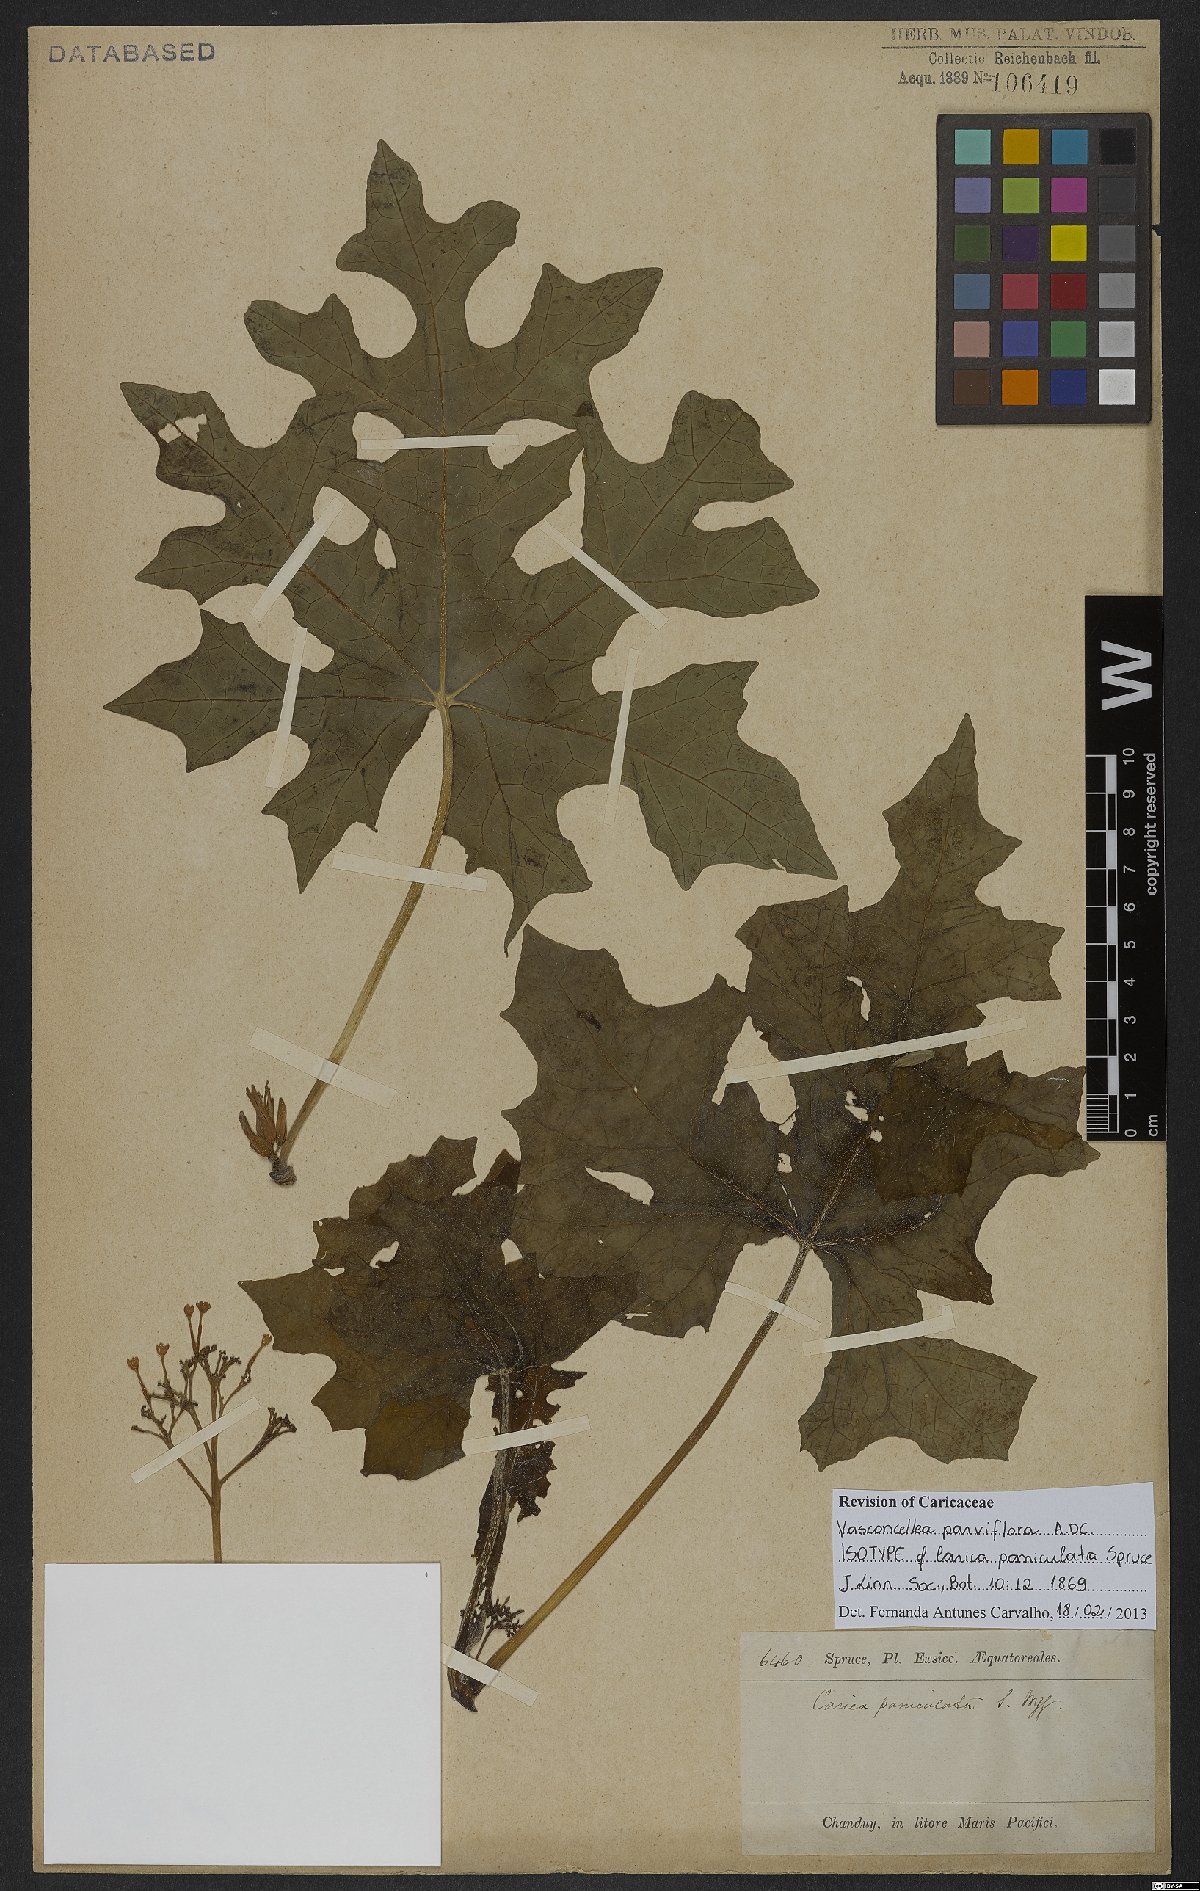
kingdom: Plantae
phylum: Tracheophyta
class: Magnoliopsida
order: Brassicales
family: Caricaceae
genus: Vasconcellea
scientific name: Vasconcellea parviflora
